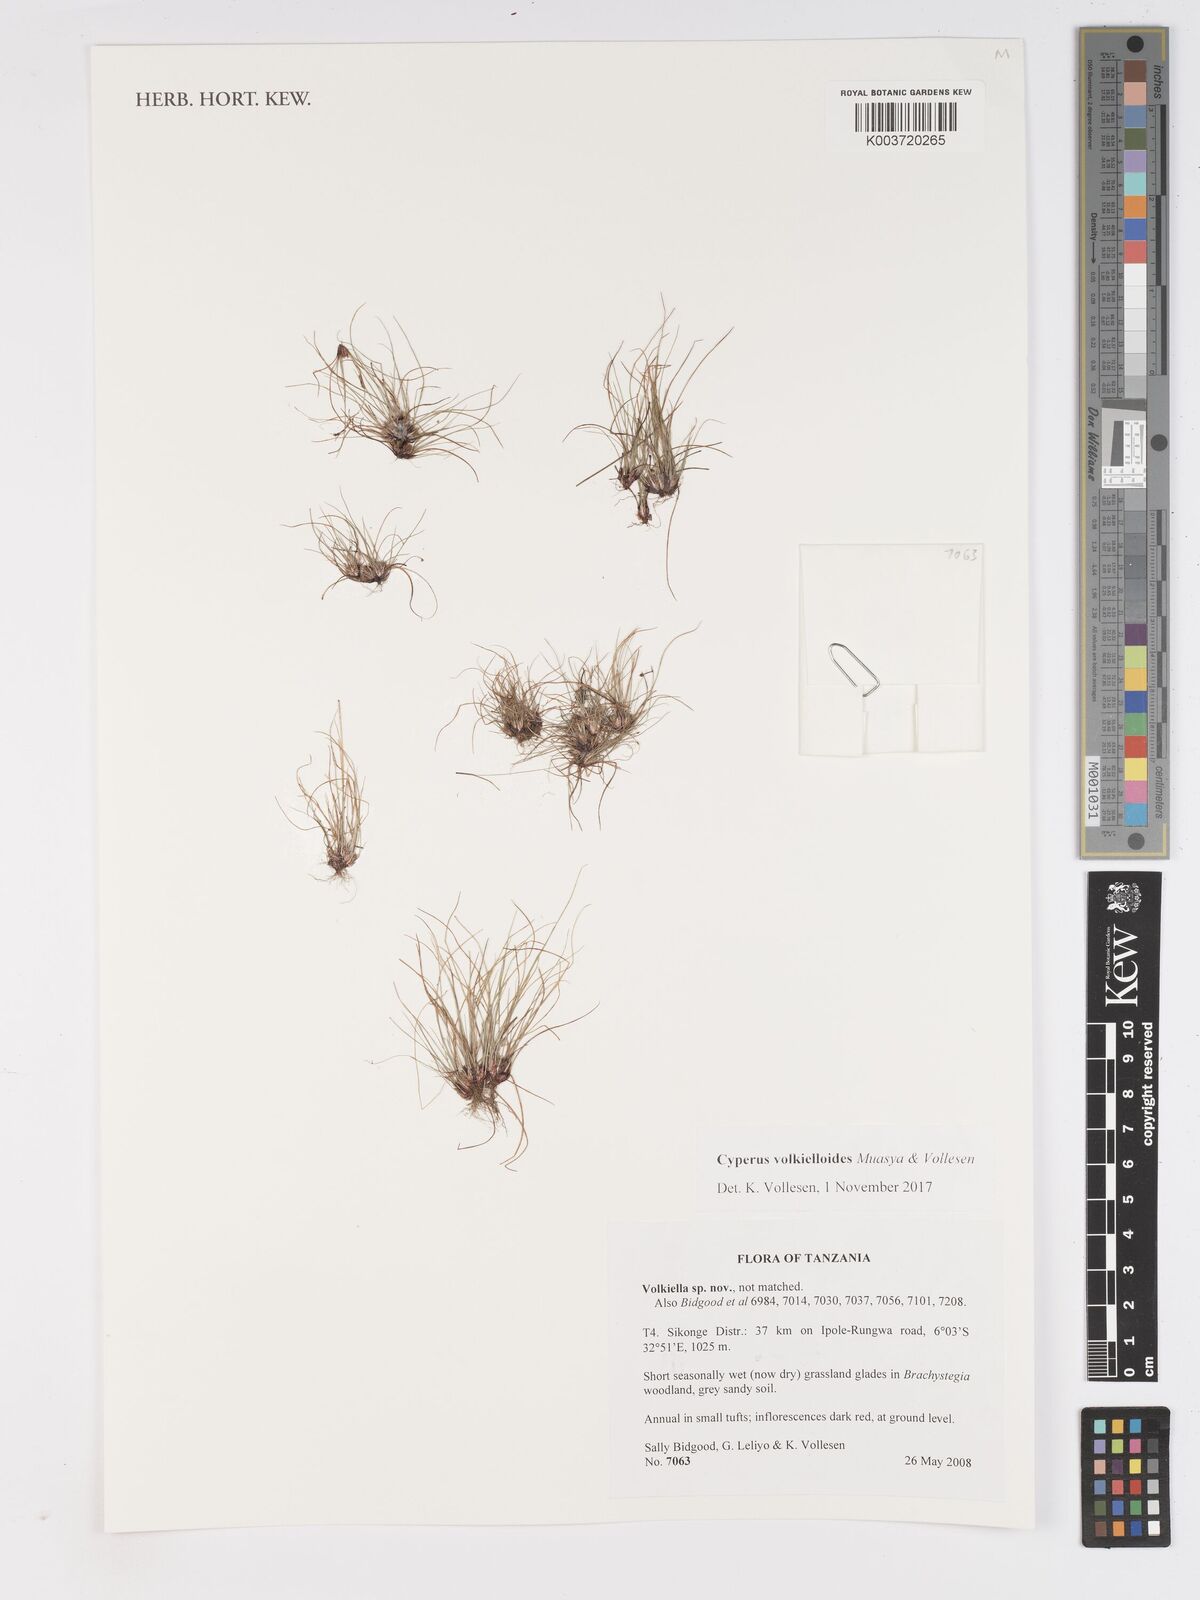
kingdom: Plantae
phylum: Tracheophyta
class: Liliopsida
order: Poales
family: Cyperaceae
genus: Cyperus
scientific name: Cyperus volkielloides
